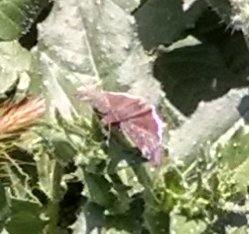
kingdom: Animalia
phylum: Arthropoda
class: Insecta
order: Lepidoptera
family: Hesperiidae
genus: Erynnis
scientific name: Erynnis
